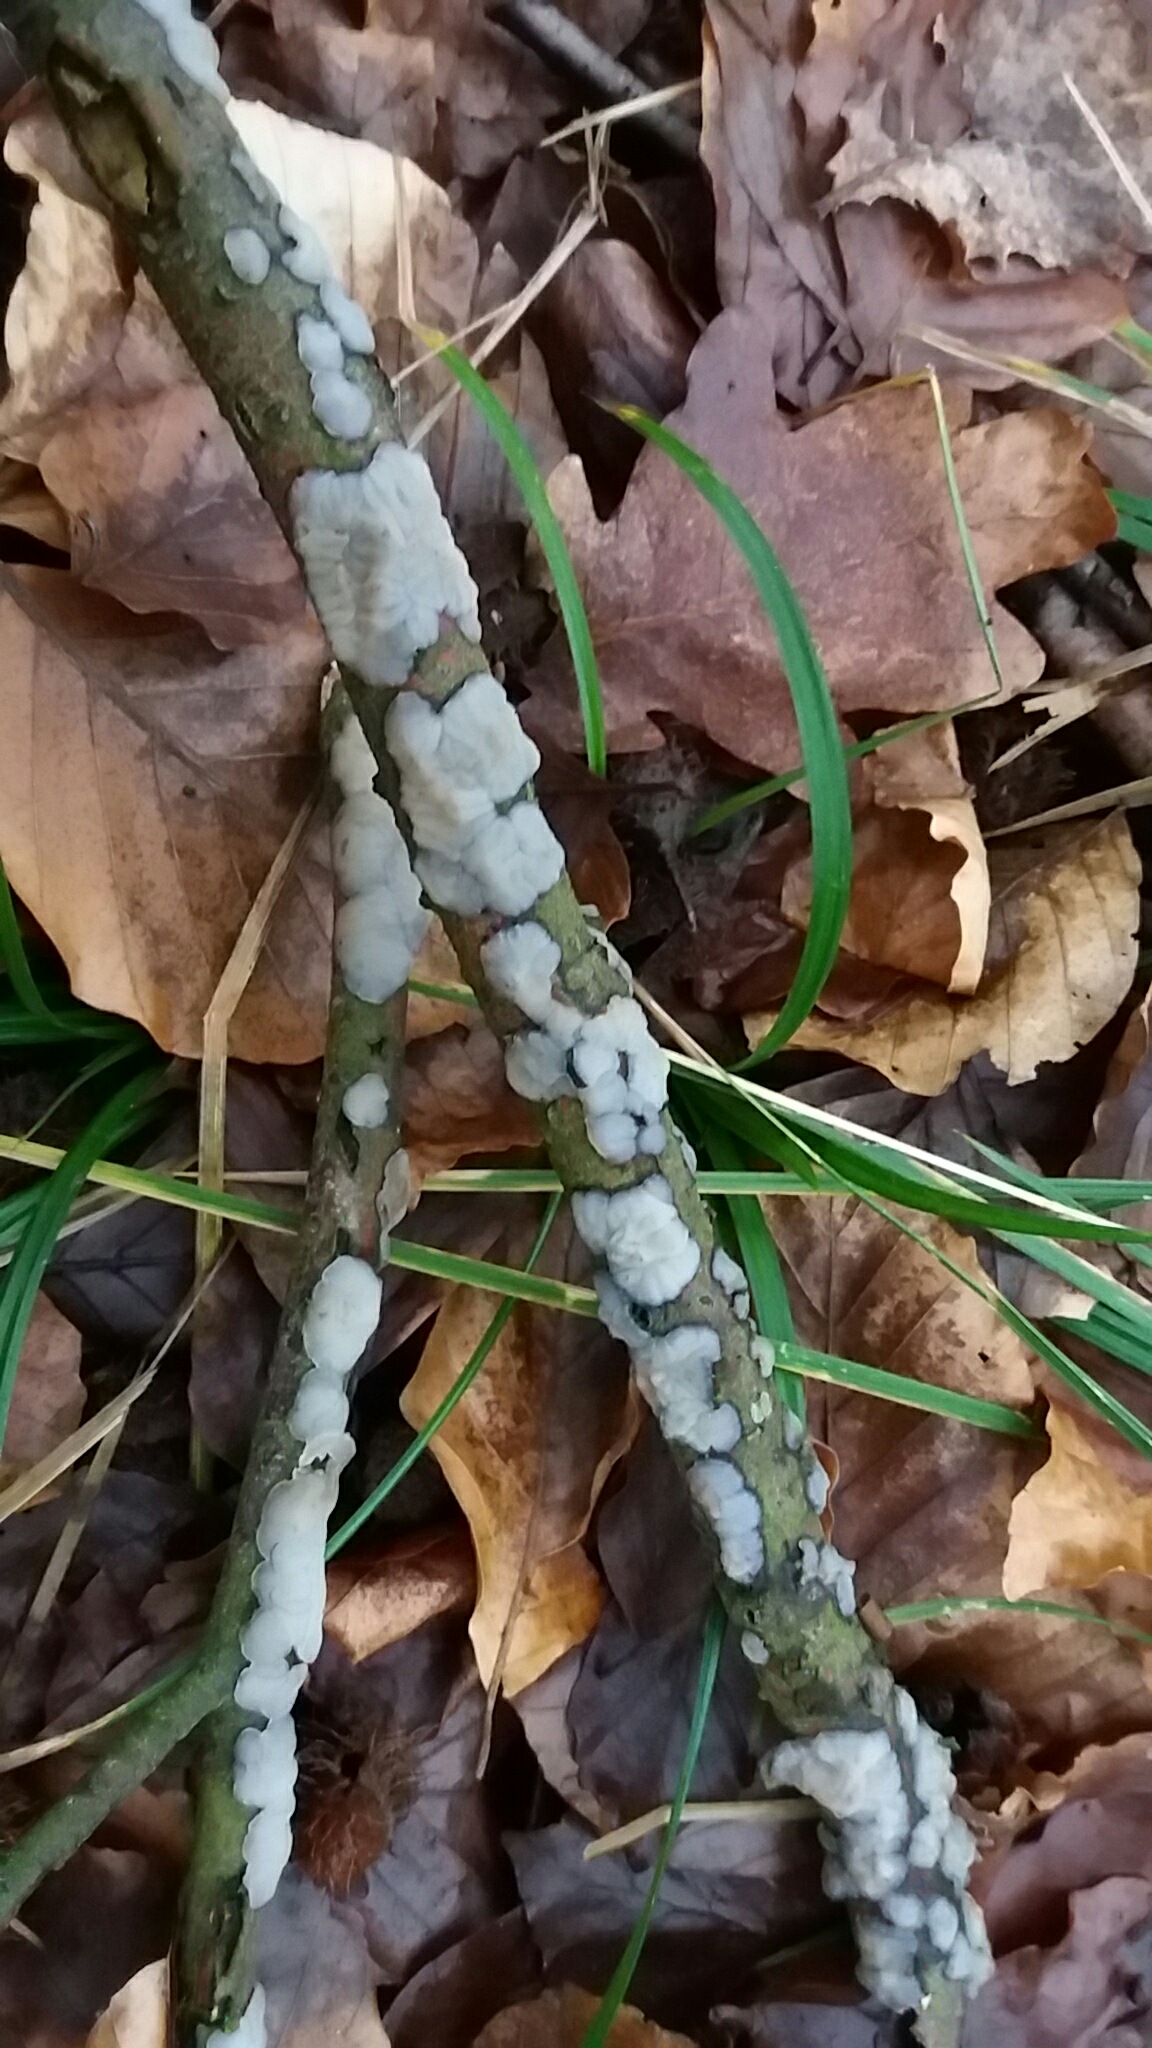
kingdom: Fungi
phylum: Basidiomycota
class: Agaricomycetes
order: Auriculariales
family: Auriculariaceae
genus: Exidia
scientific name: Exidia thuretiana
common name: hvidlig bævretop
